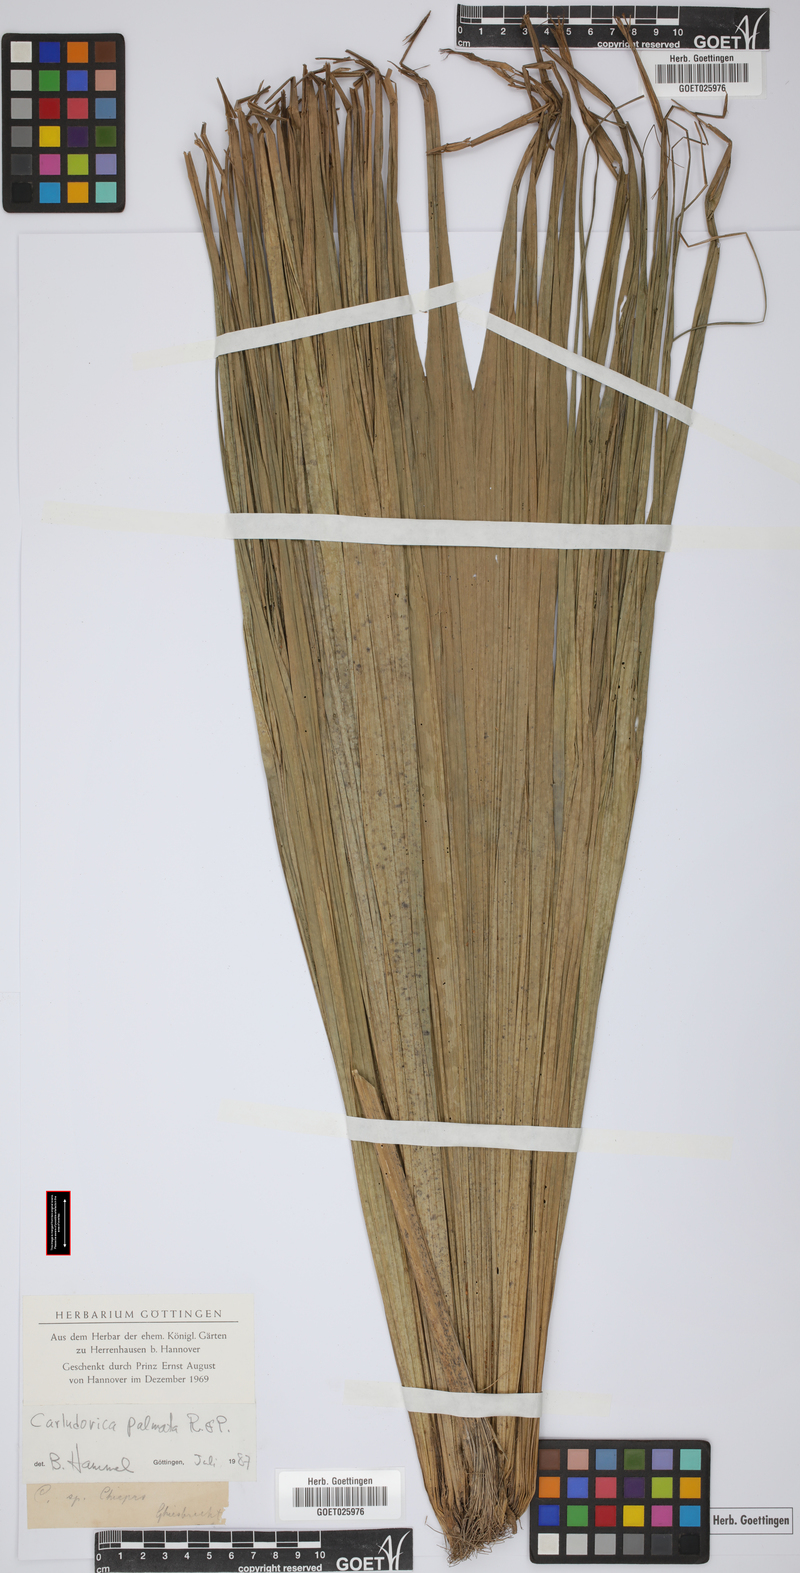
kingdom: Plantae
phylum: Tracheophyta
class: Liliopsida
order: Pandanales
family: Cyclanthaceae
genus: Carludovica
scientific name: Carludovica palmata
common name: Panama hat plant
